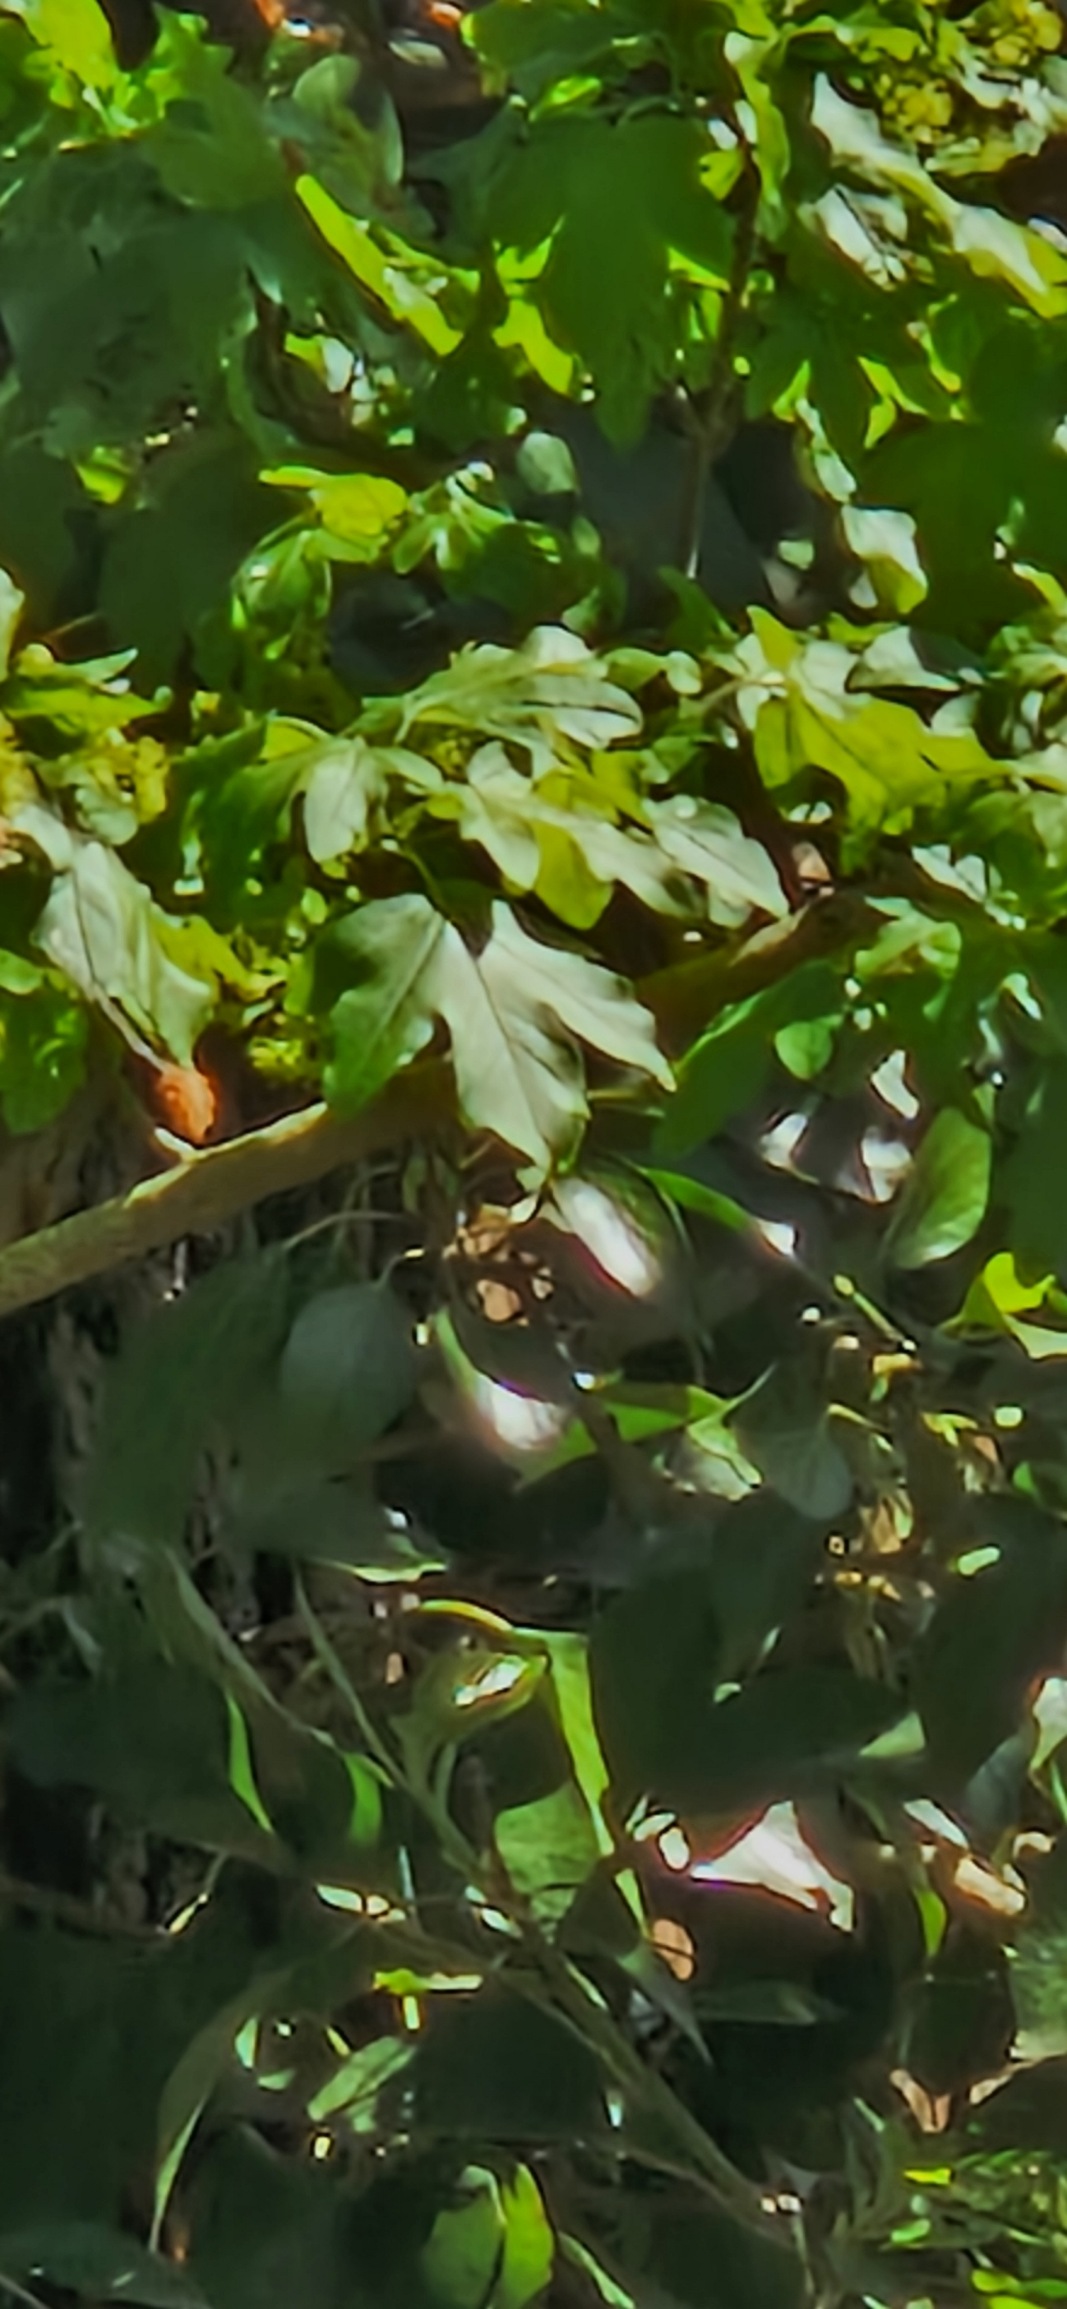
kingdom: Plantae
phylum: Tracheophyta
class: Magnoliopsida
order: Sapindales
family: Sapindaceae
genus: Acer
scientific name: Acer campestre
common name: Navr
